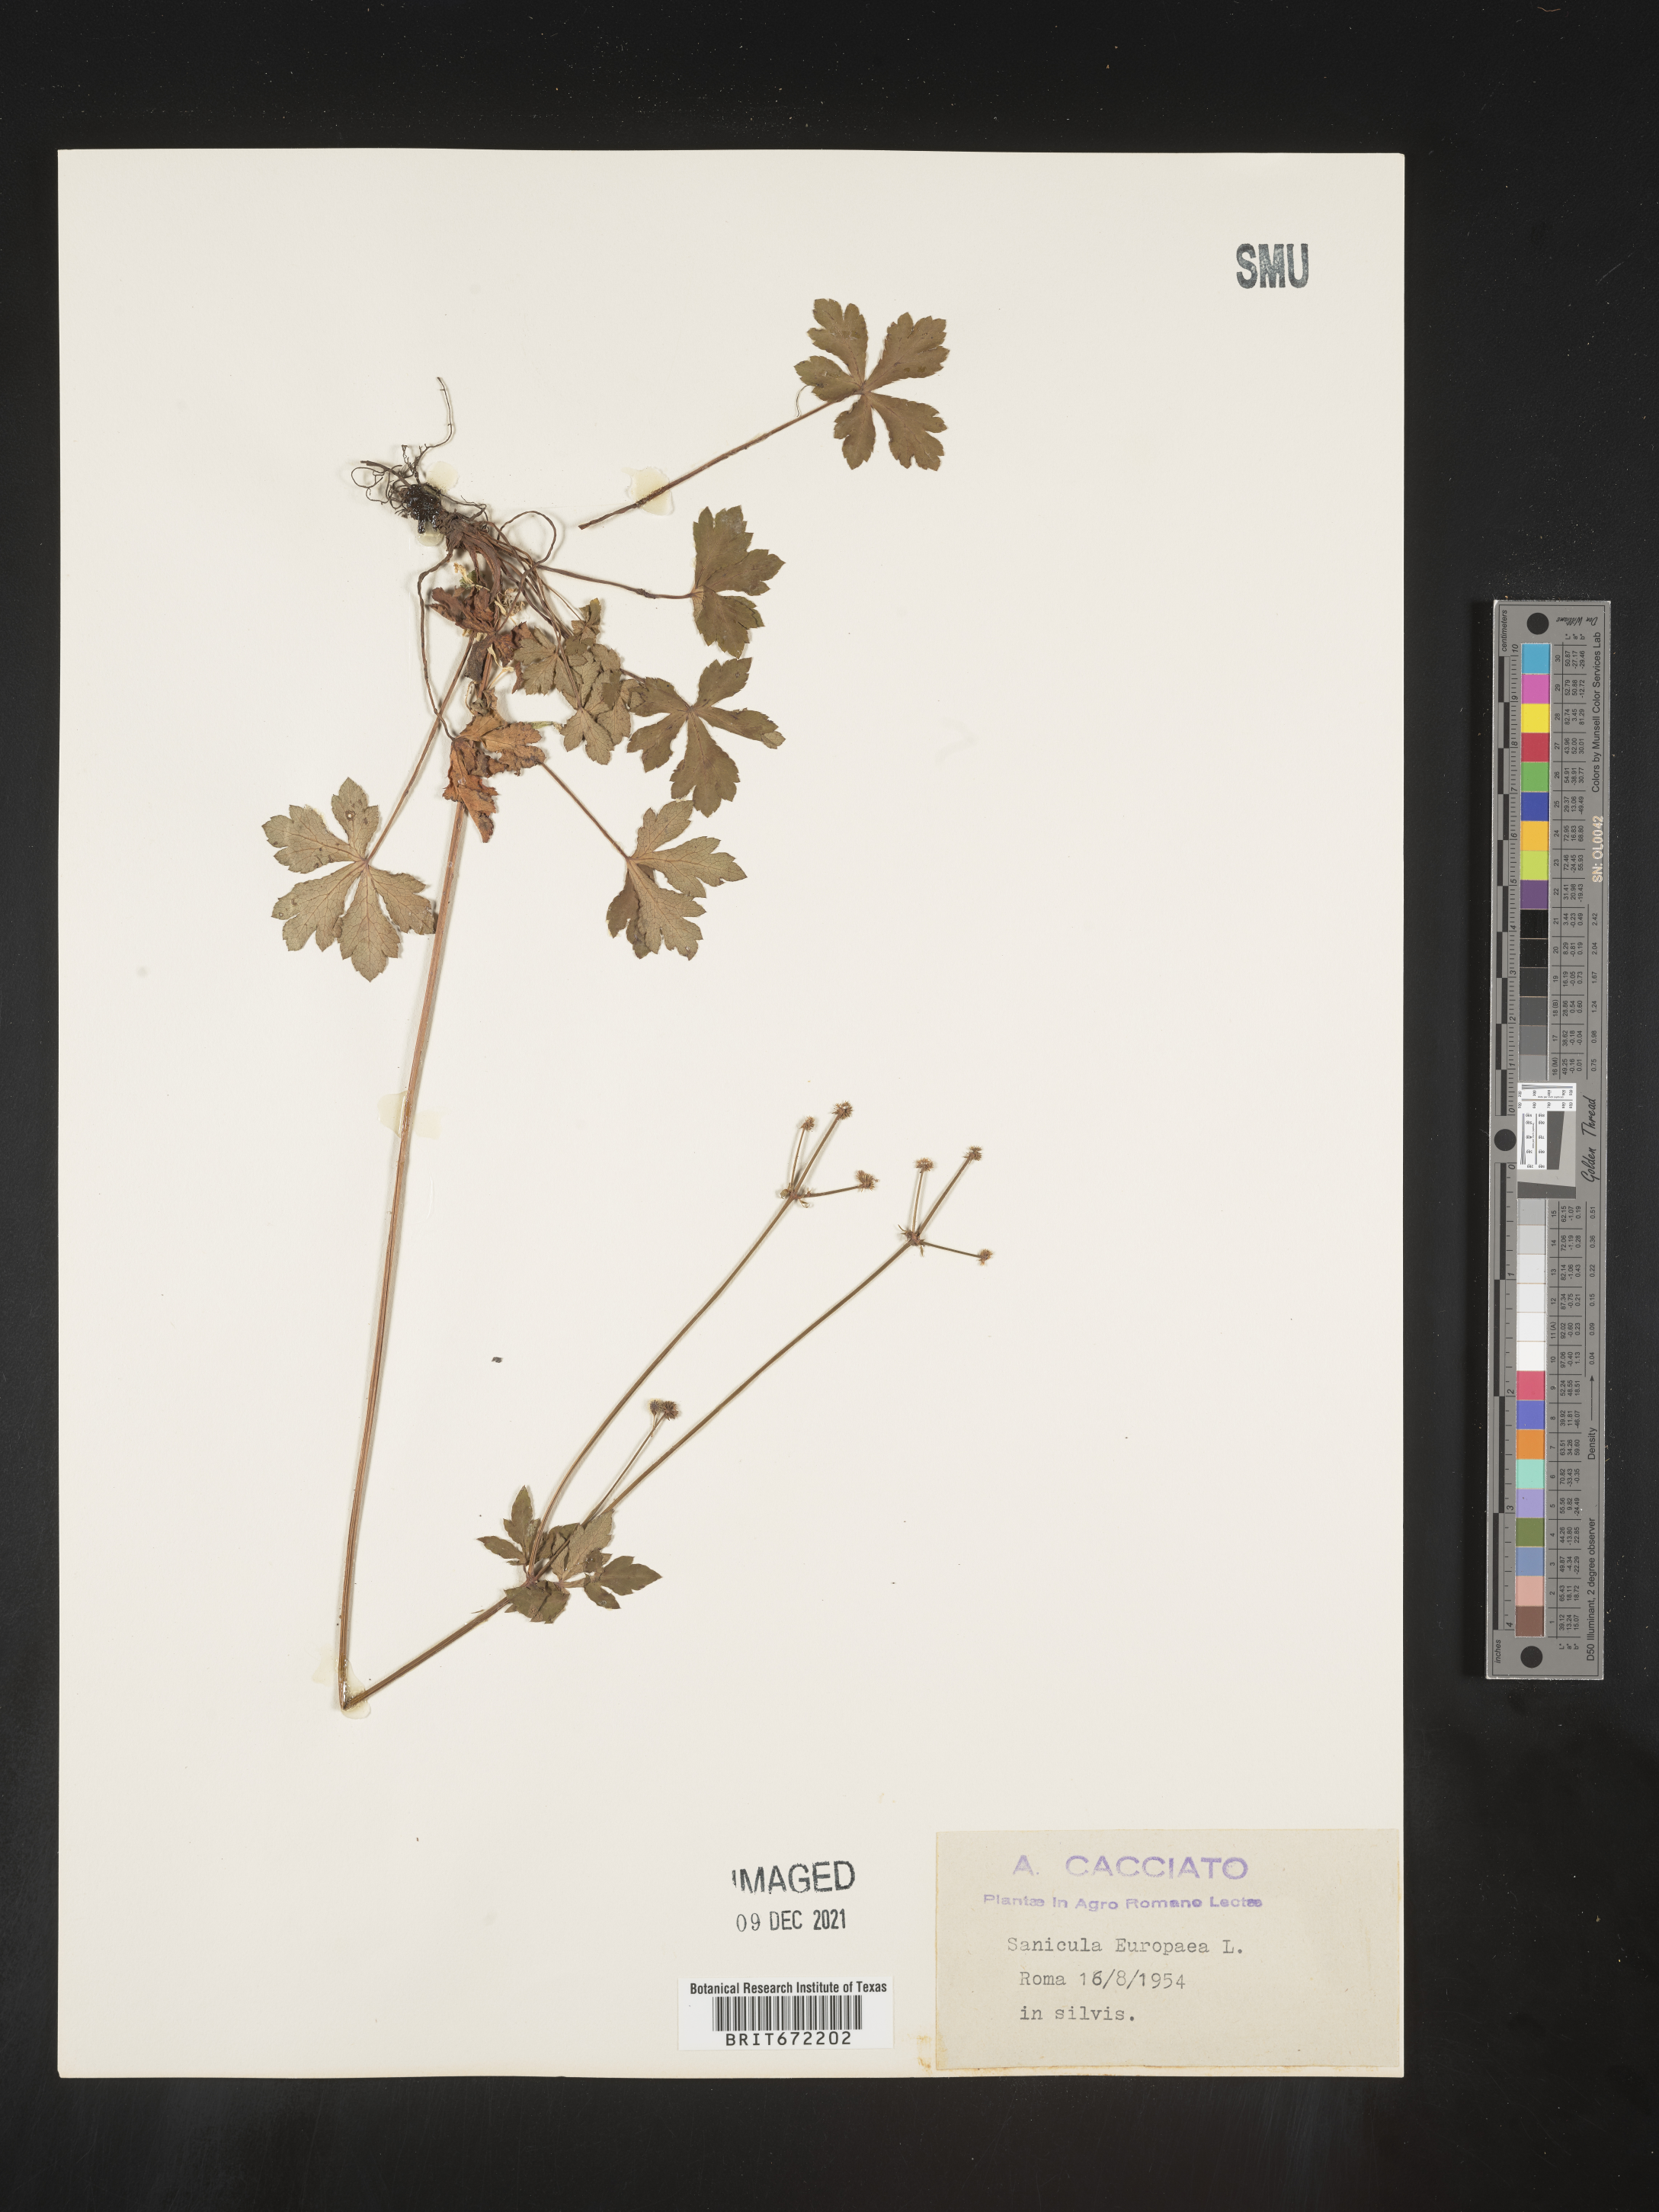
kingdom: Plantae
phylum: Tracheophyta
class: Magnoliopsida
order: Apiales
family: Apiaceae
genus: Sanicula
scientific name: Sanicula
